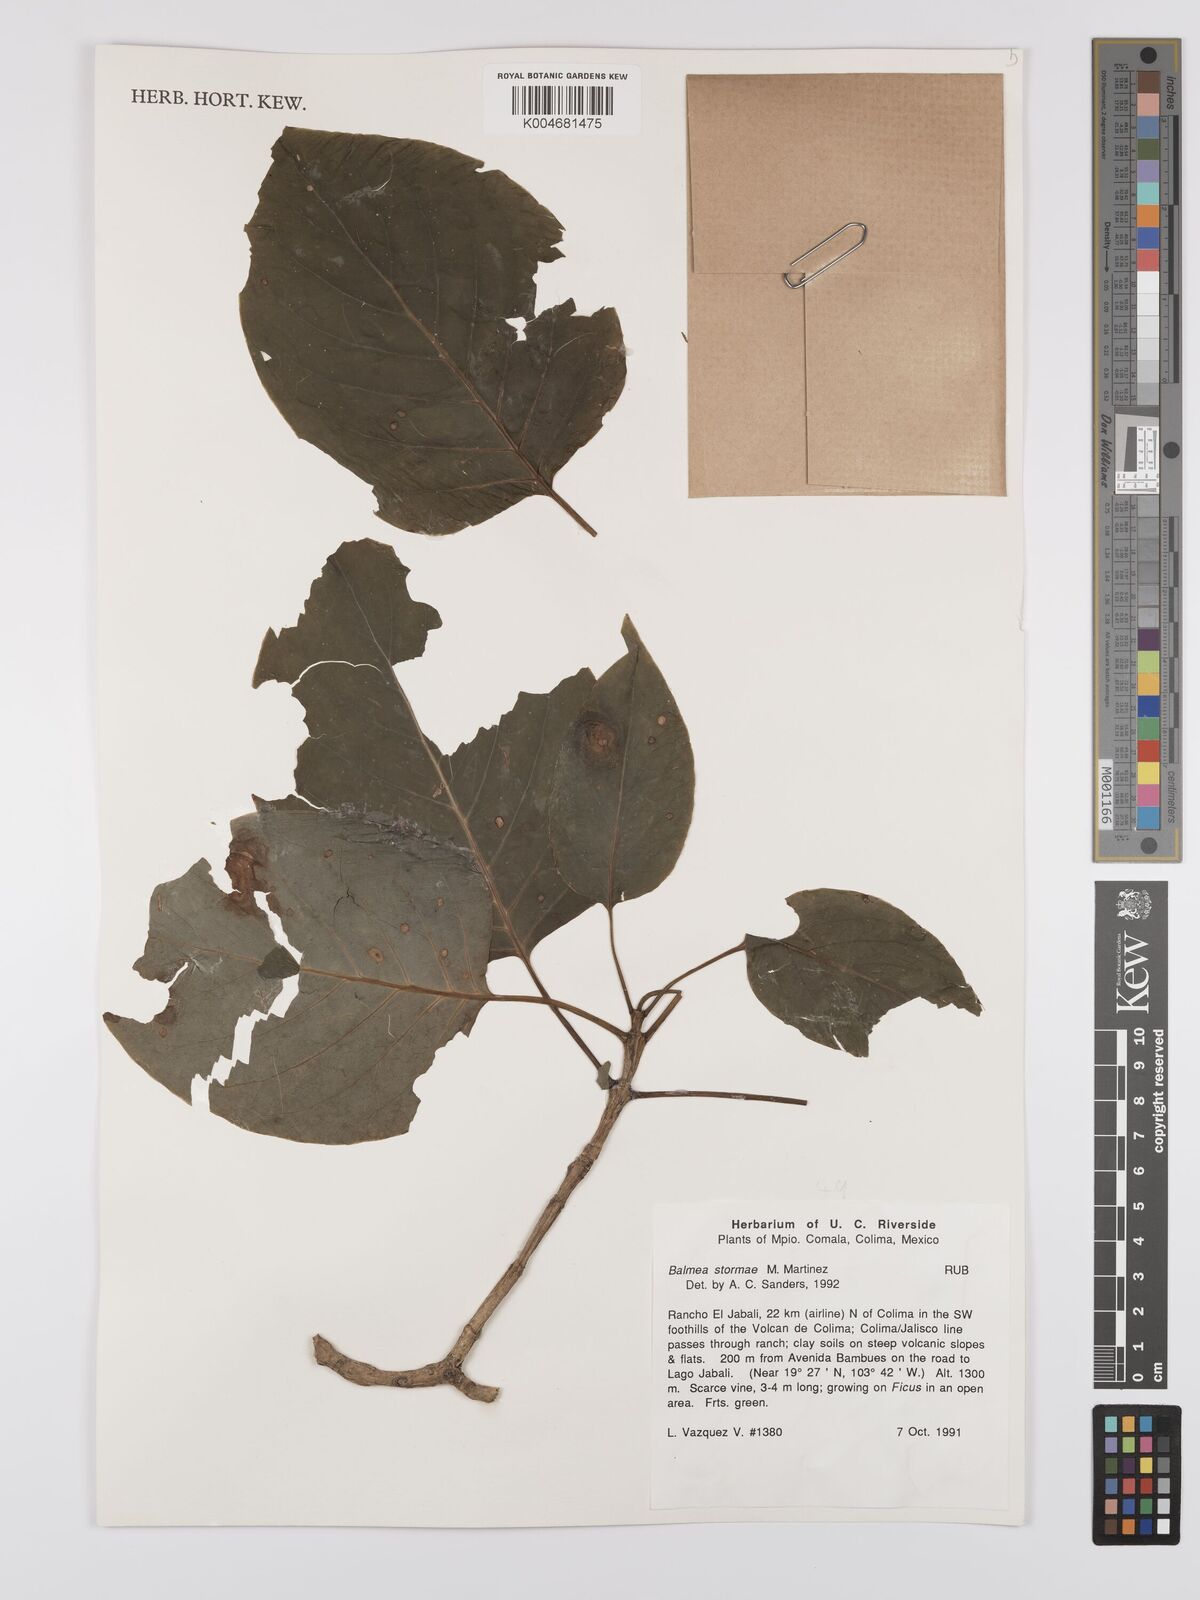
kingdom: Plantae
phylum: Tracheophyta
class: Magnoliopsida
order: Gentianales
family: Rubiaceae
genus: Balmea
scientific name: Balmea stormiae
